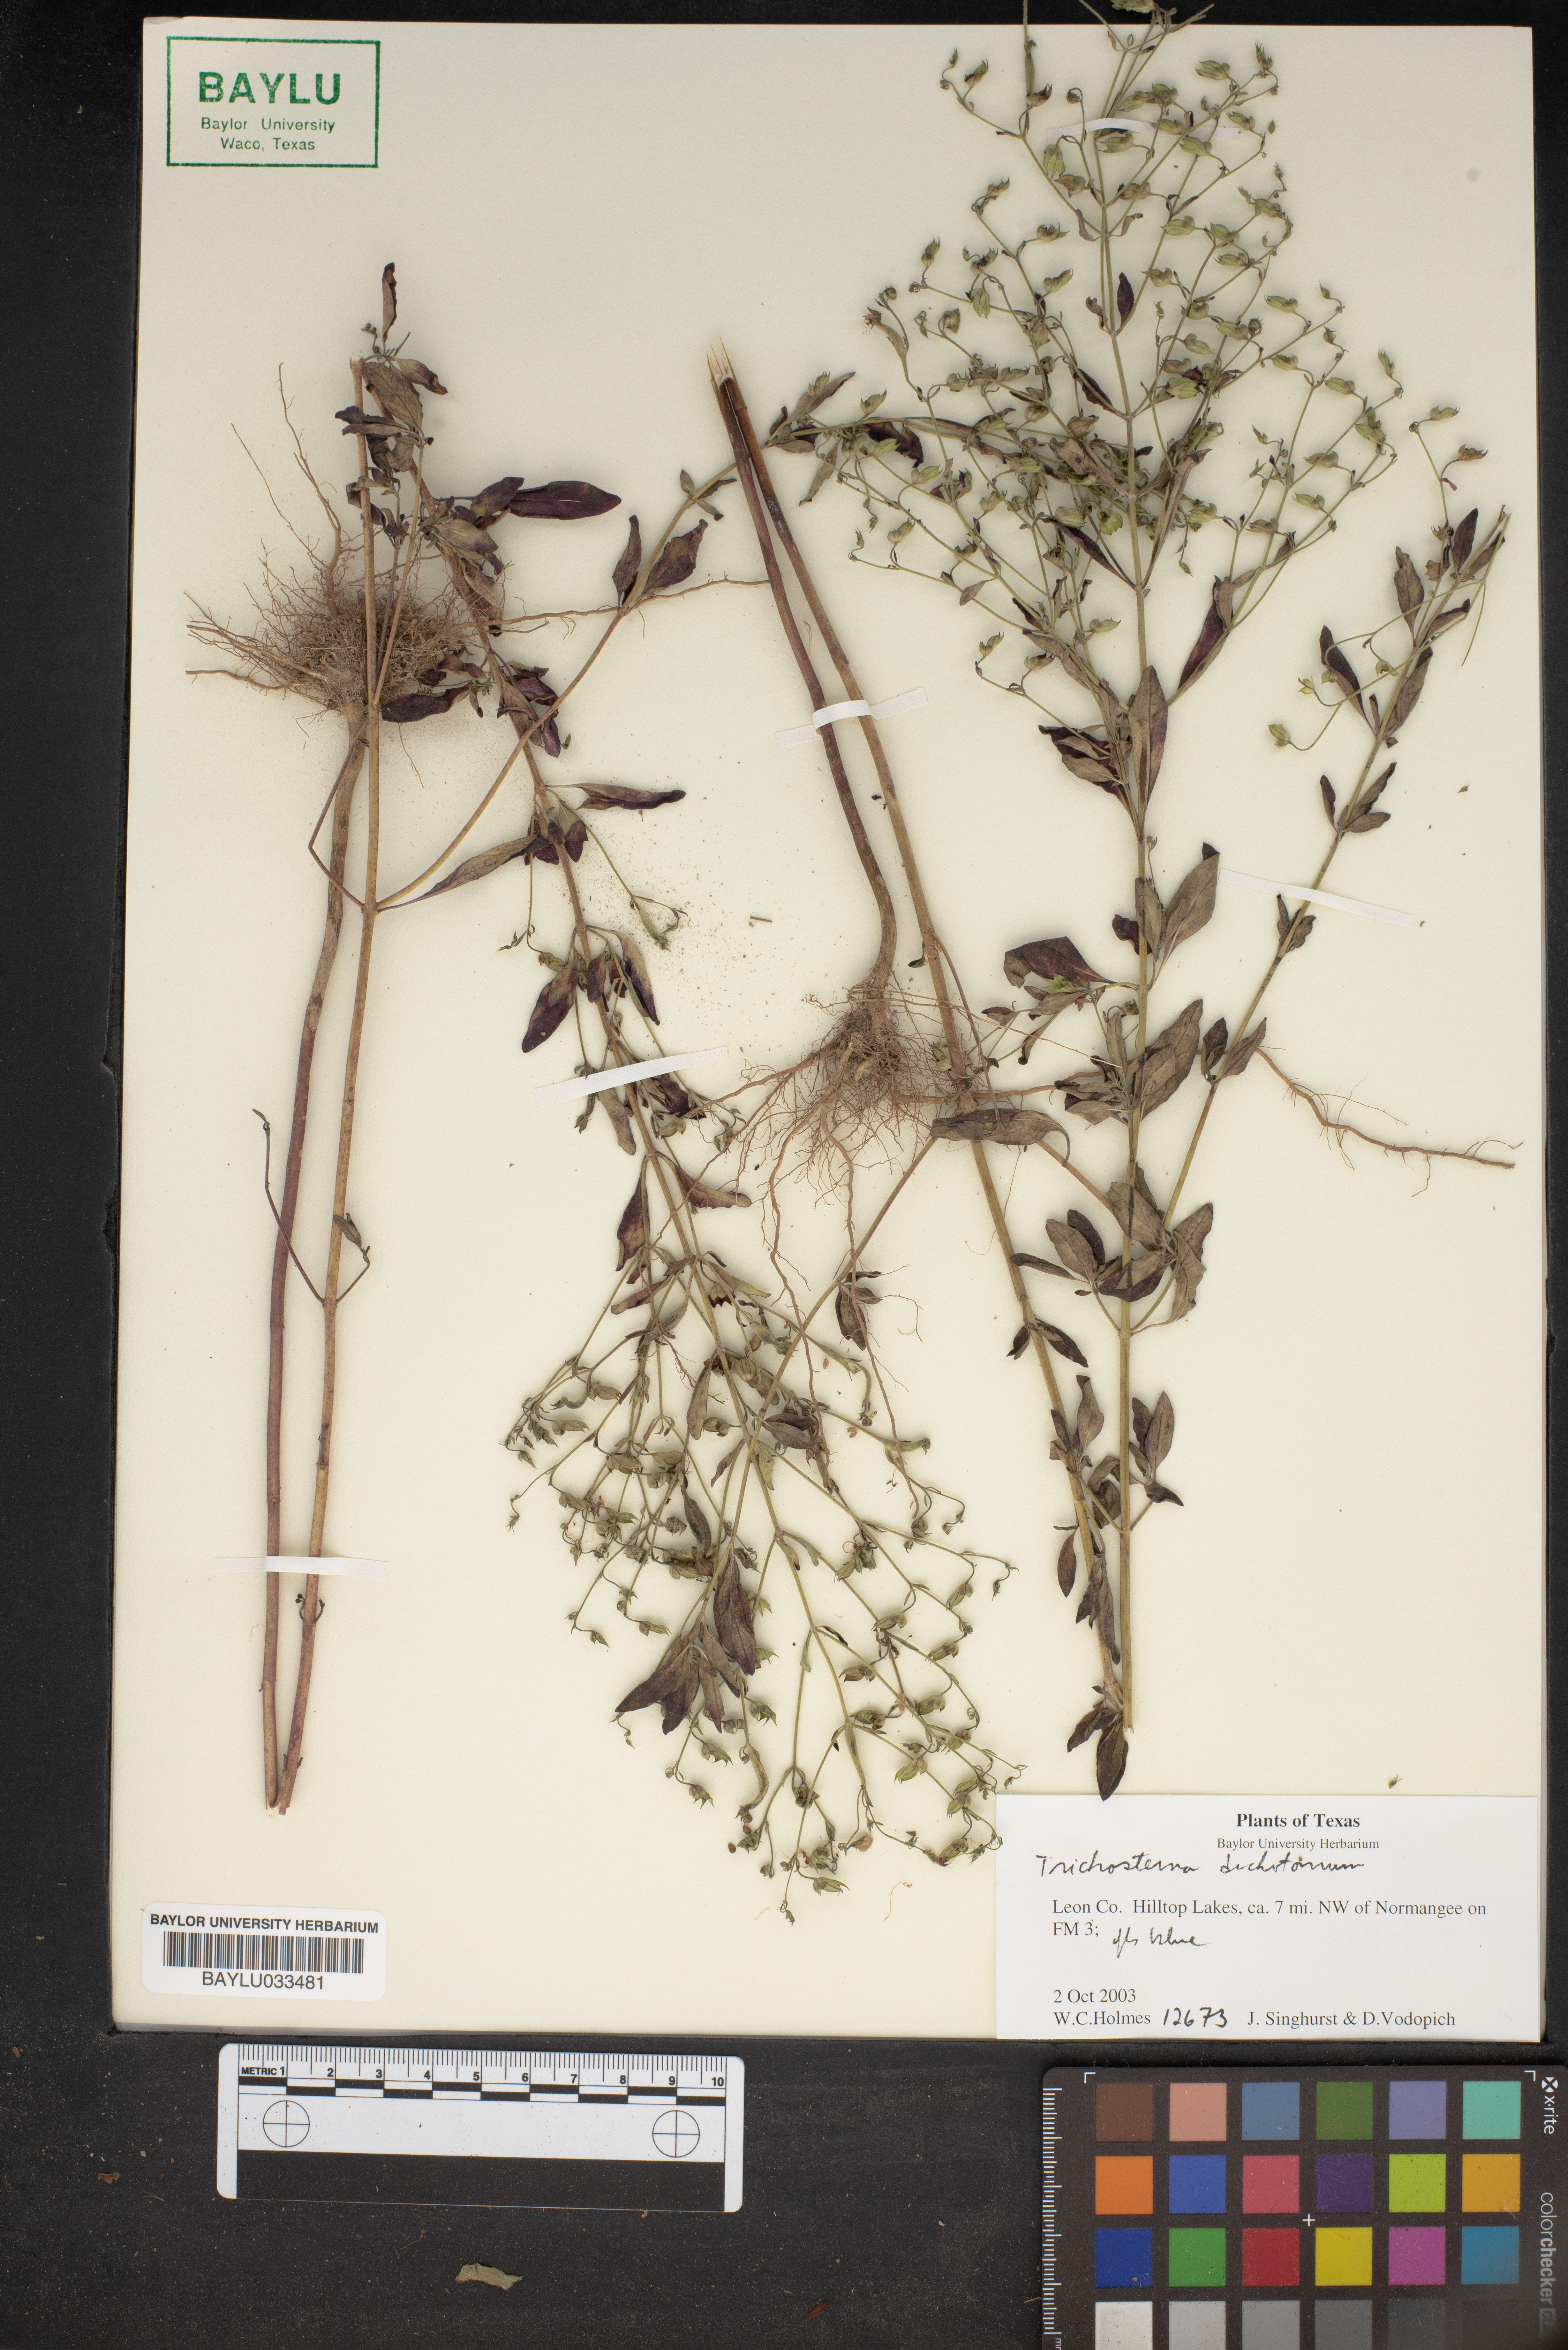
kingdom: Plantae
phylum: Tracheophyta
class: Magnoliopsida
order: Lamiales
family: Lamiaceae
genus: Trichostema
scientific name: Trichostema dichotomum
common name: Bastard pennyroyal
